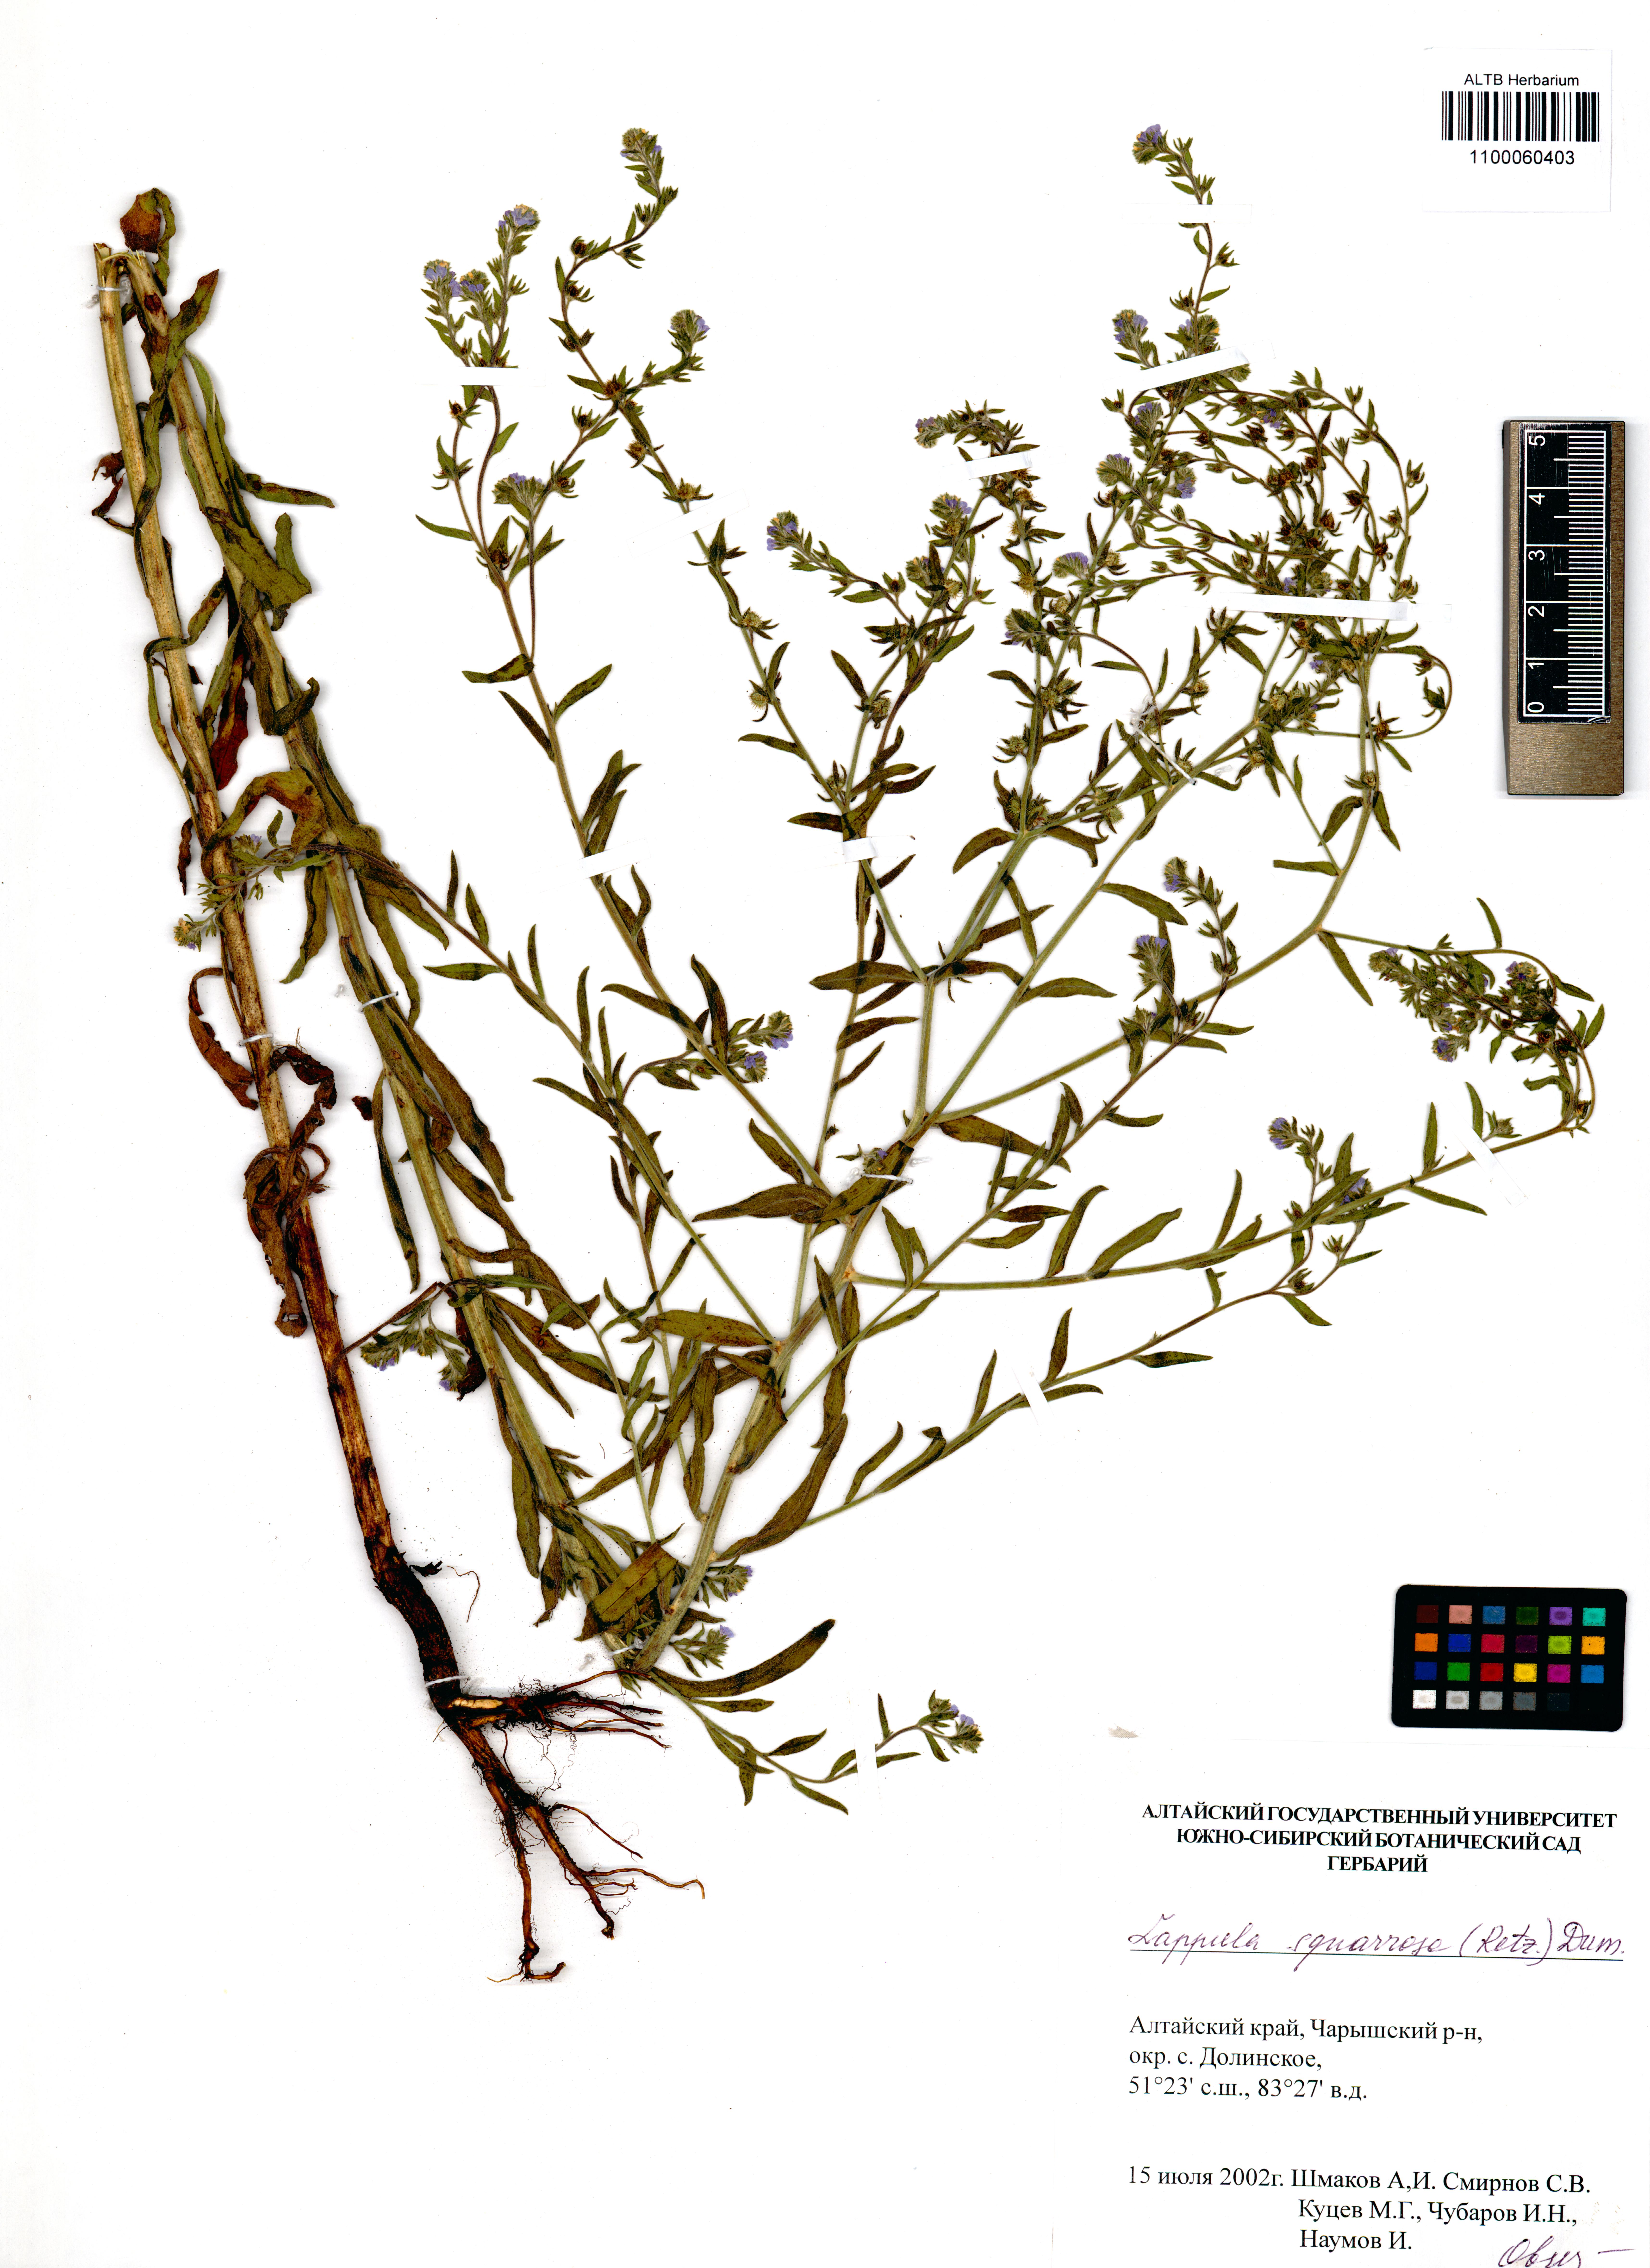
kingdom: Plantae
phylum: Tracheophyta
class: Magnoliopsida
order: Boraginales
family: Boraginaceae
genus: Lappula
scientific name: Lappula squarrosa
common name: European stickseed
